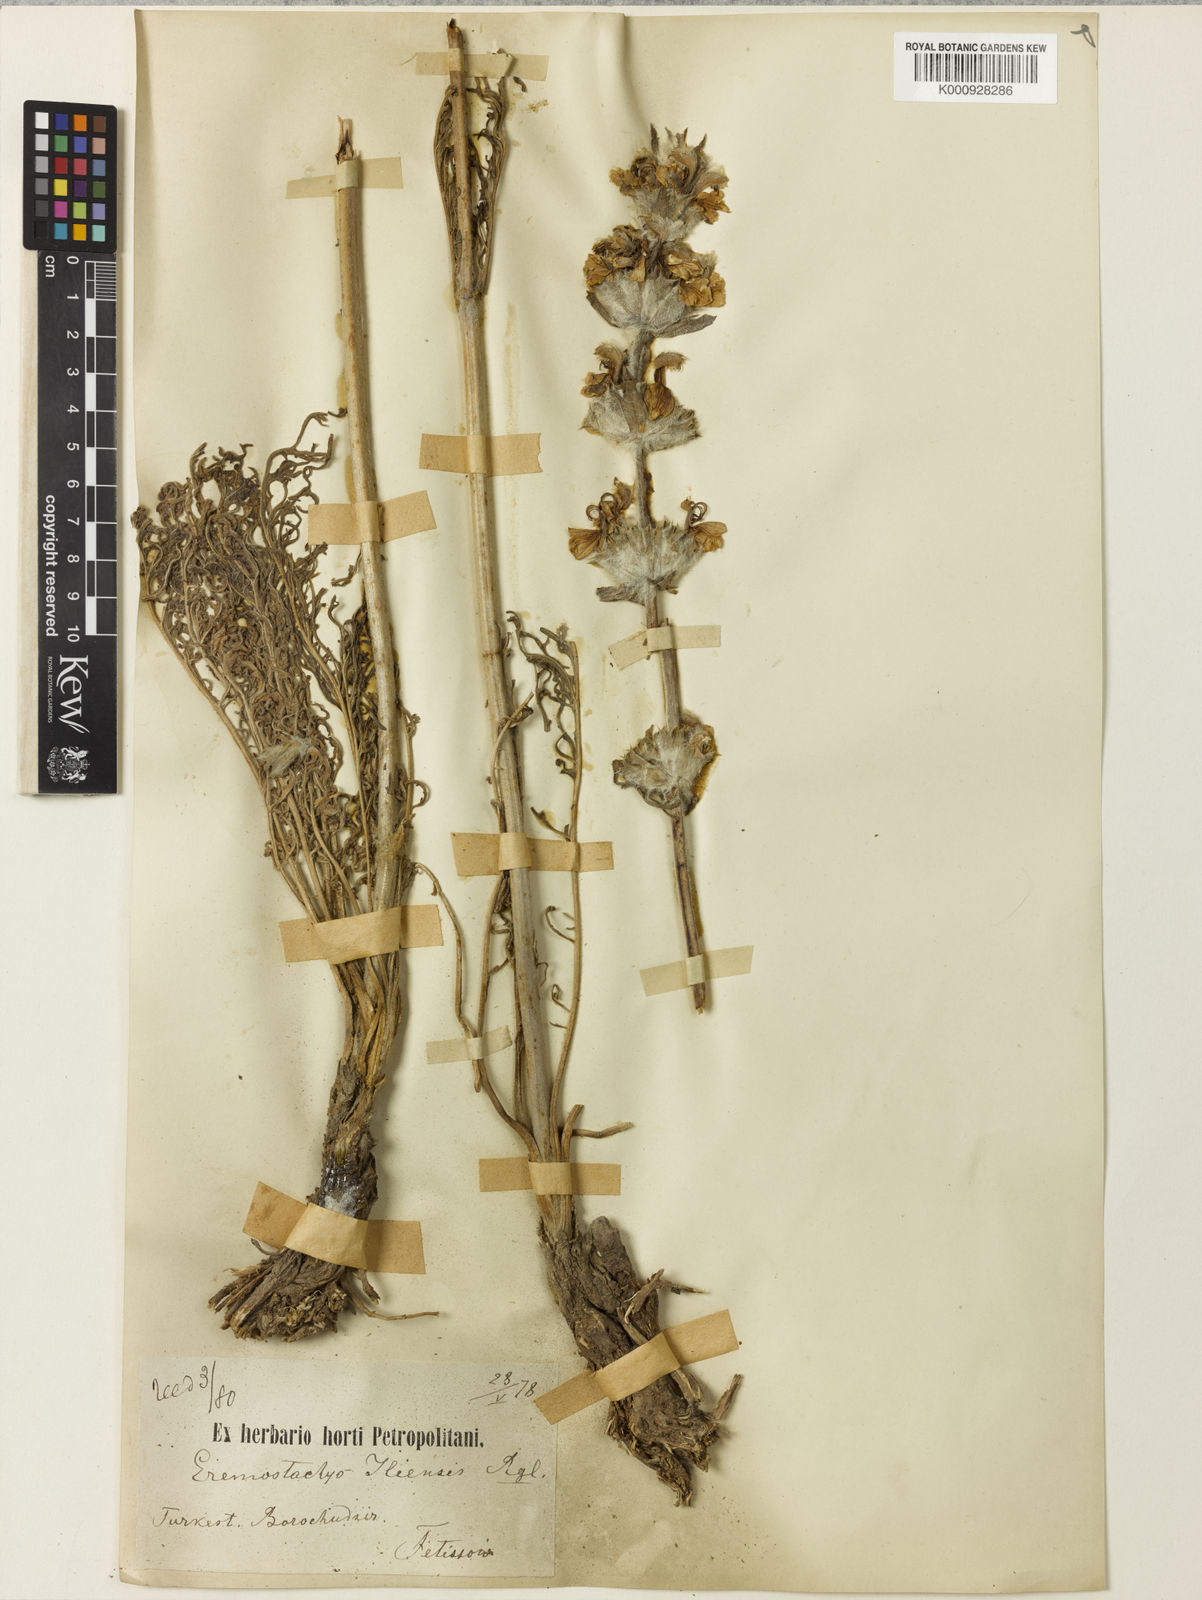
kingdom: Plantae
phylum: Tracheophyta
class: Magnoliopsida
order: Lamiales
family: Lamiaceae
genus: Phlomoides
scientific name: Phlomoides iliensis
